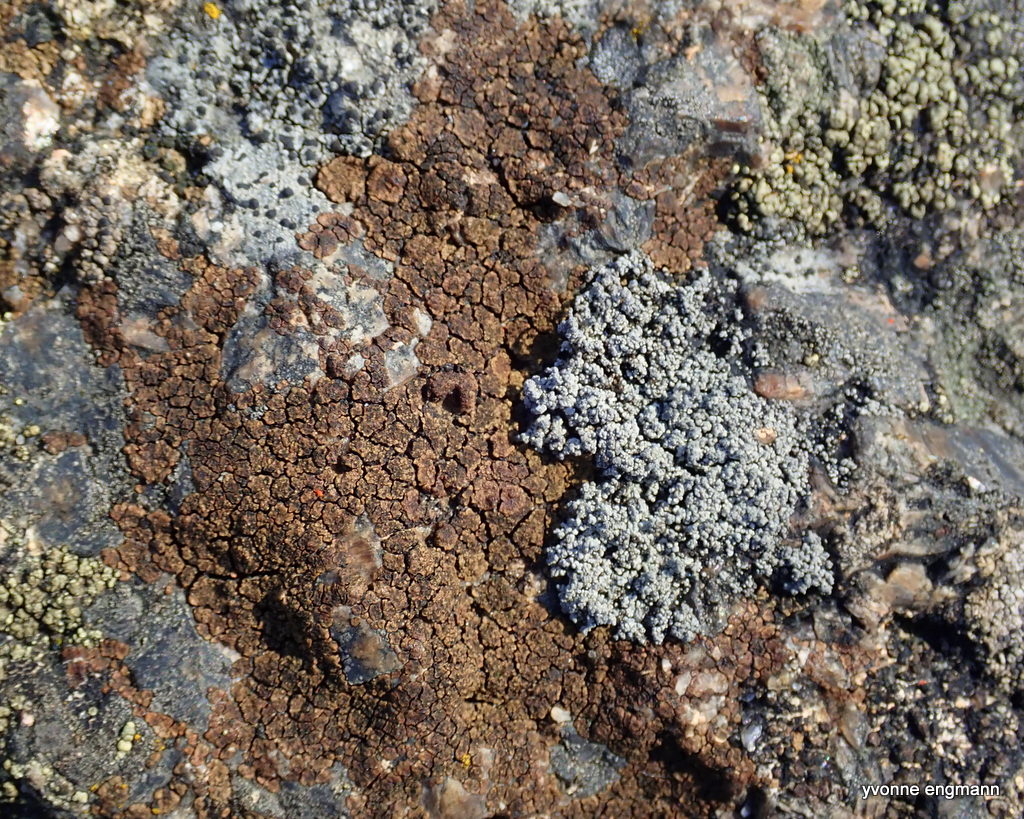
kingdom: Fungi
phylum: Ascomycota
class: Lecanoromycetes
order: Acarosporales
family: Acarosporaceae
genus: Acarospora
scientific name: Acarospora fuscata
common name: brun småsporelav
